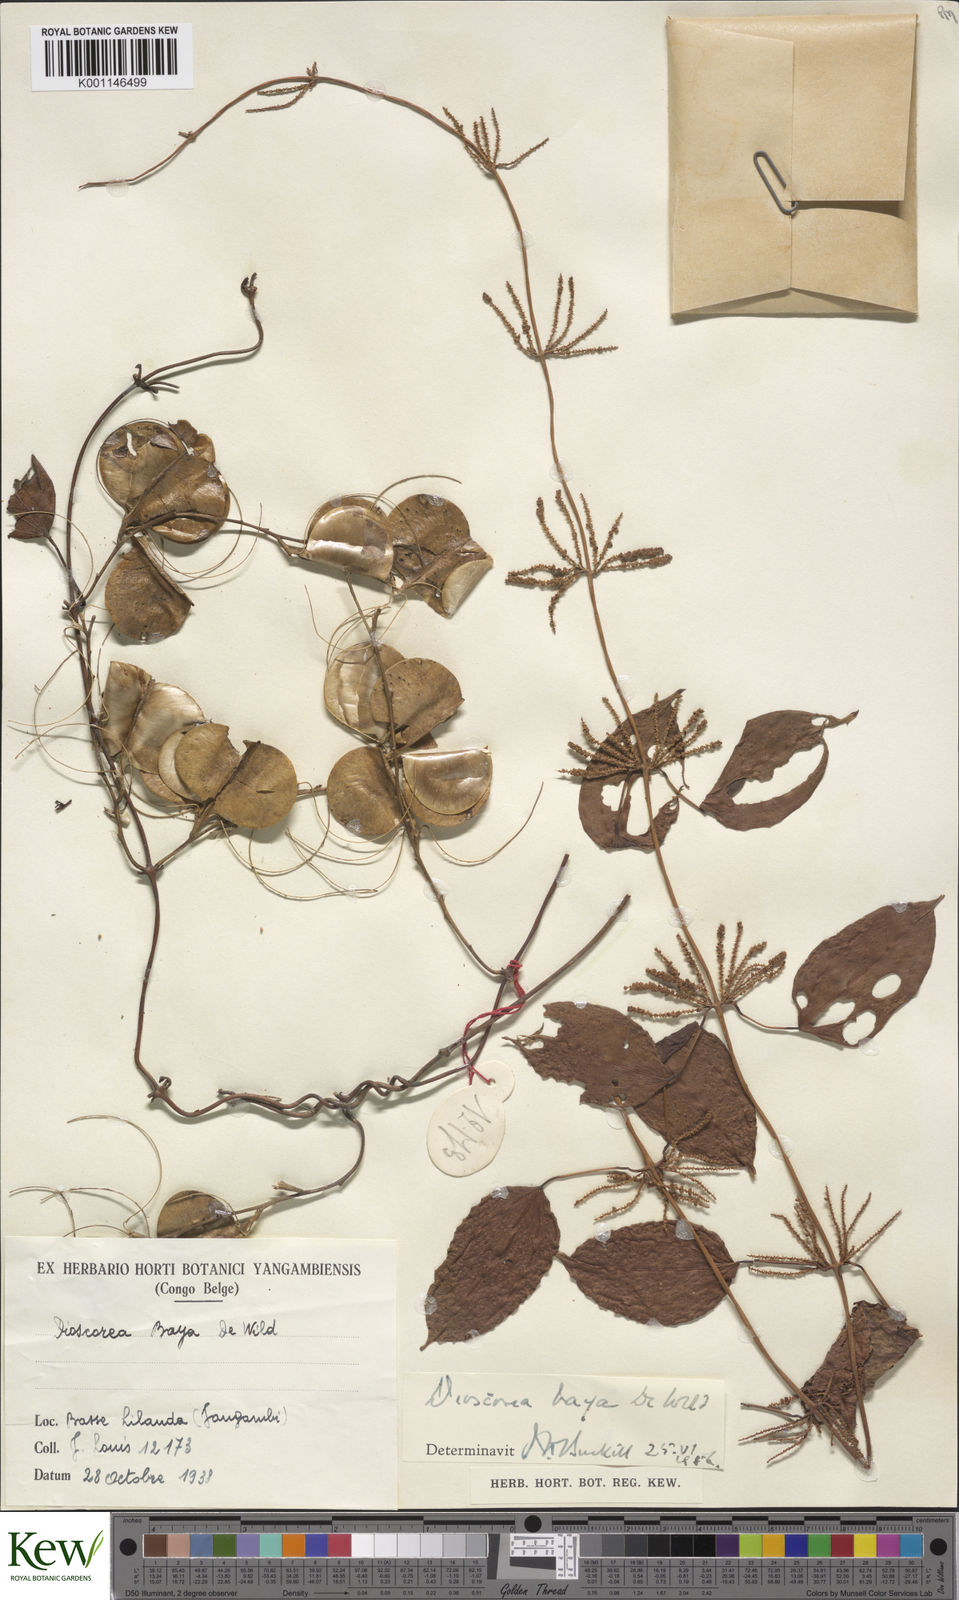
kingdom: Plantae
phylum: Tracheophyta
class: Liliopsida
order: Dioscoreales
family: Dioscoreaceae
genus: Dioscorea
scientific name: Dioscorea baya
